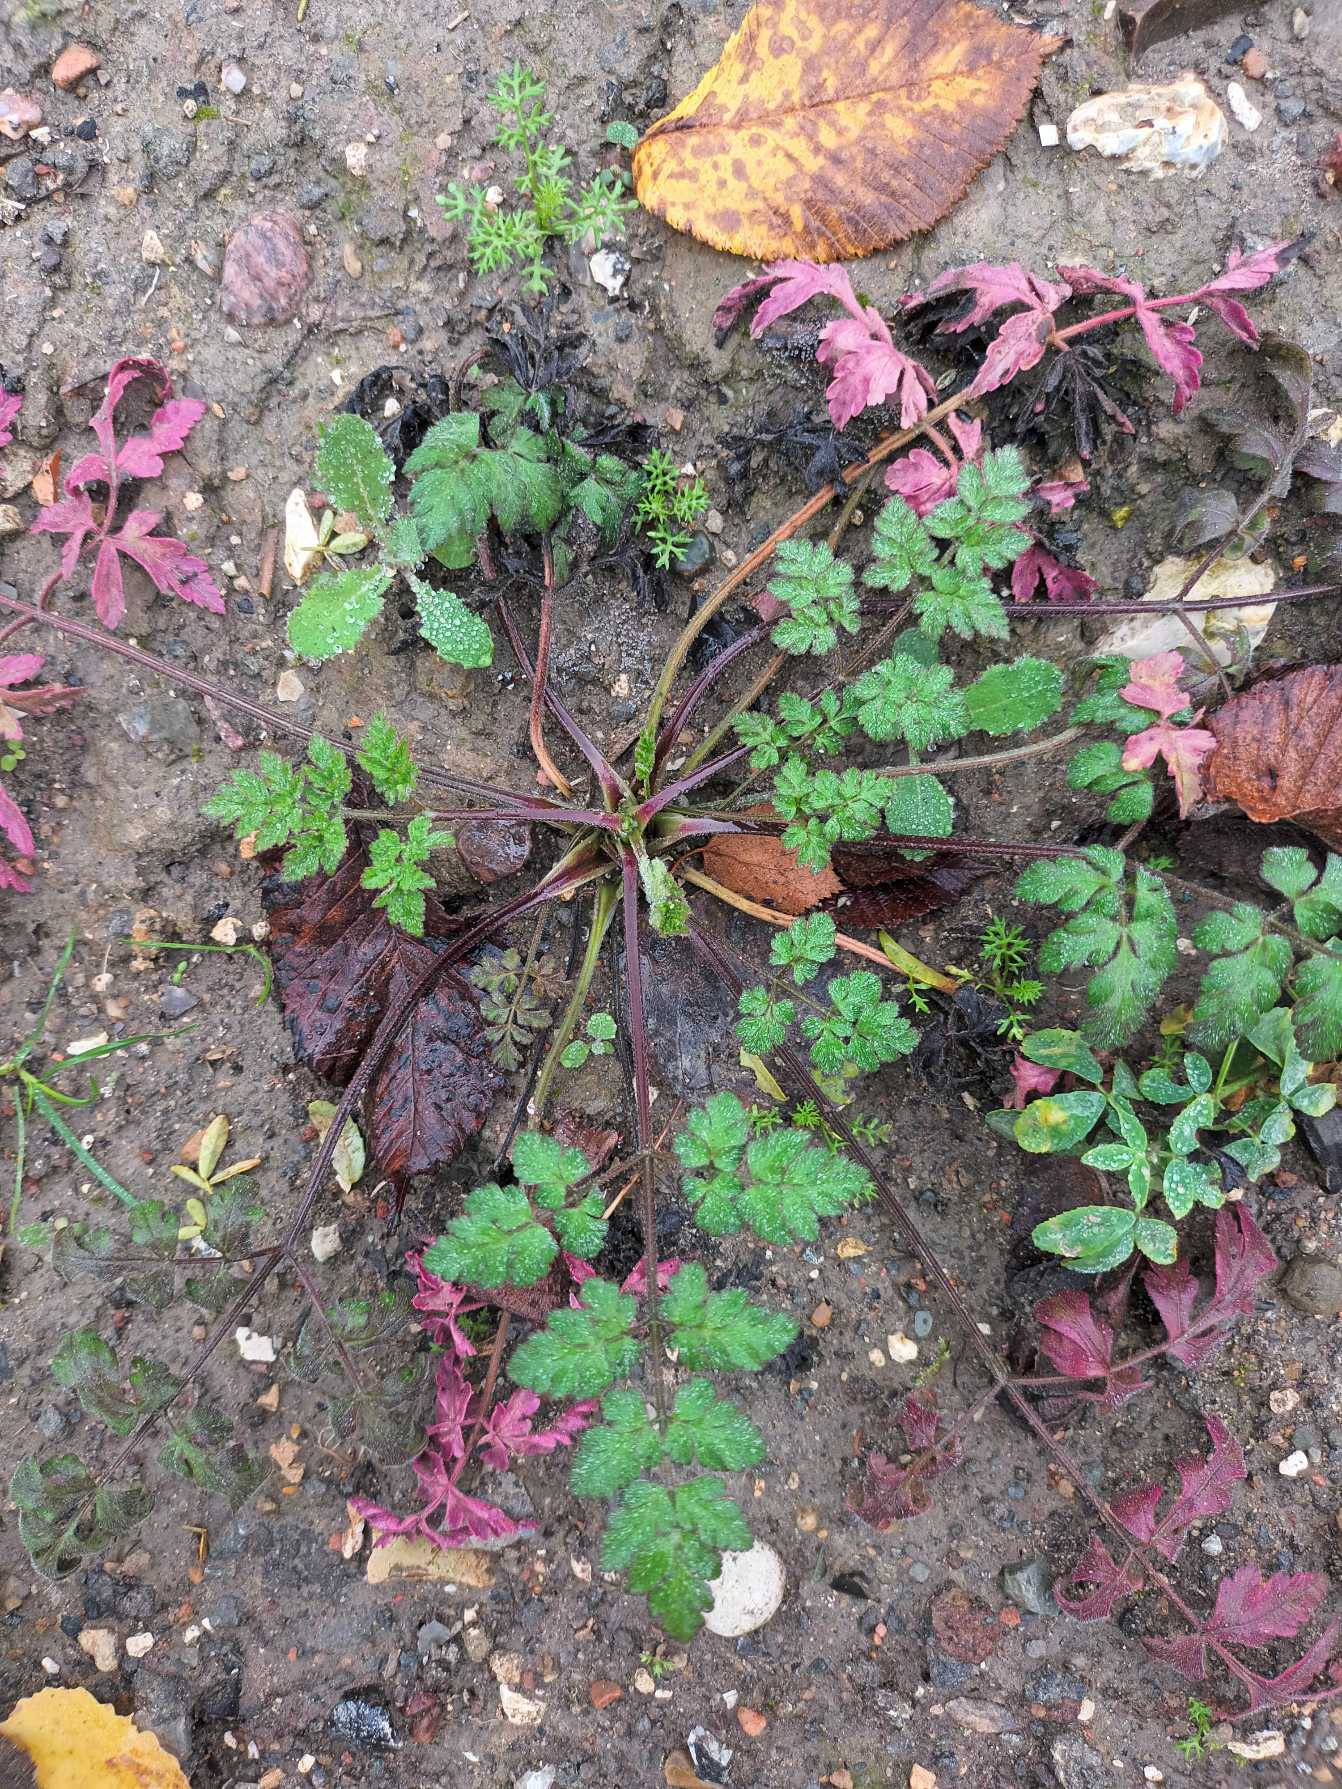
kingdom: Plantae
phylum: Tracheophyta
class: Magnoliopsida
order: Apiales
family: Apiaceae
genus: Chaerophyllum
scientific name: Chaerophyllum temulum
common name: Almindelig hulsvøb
